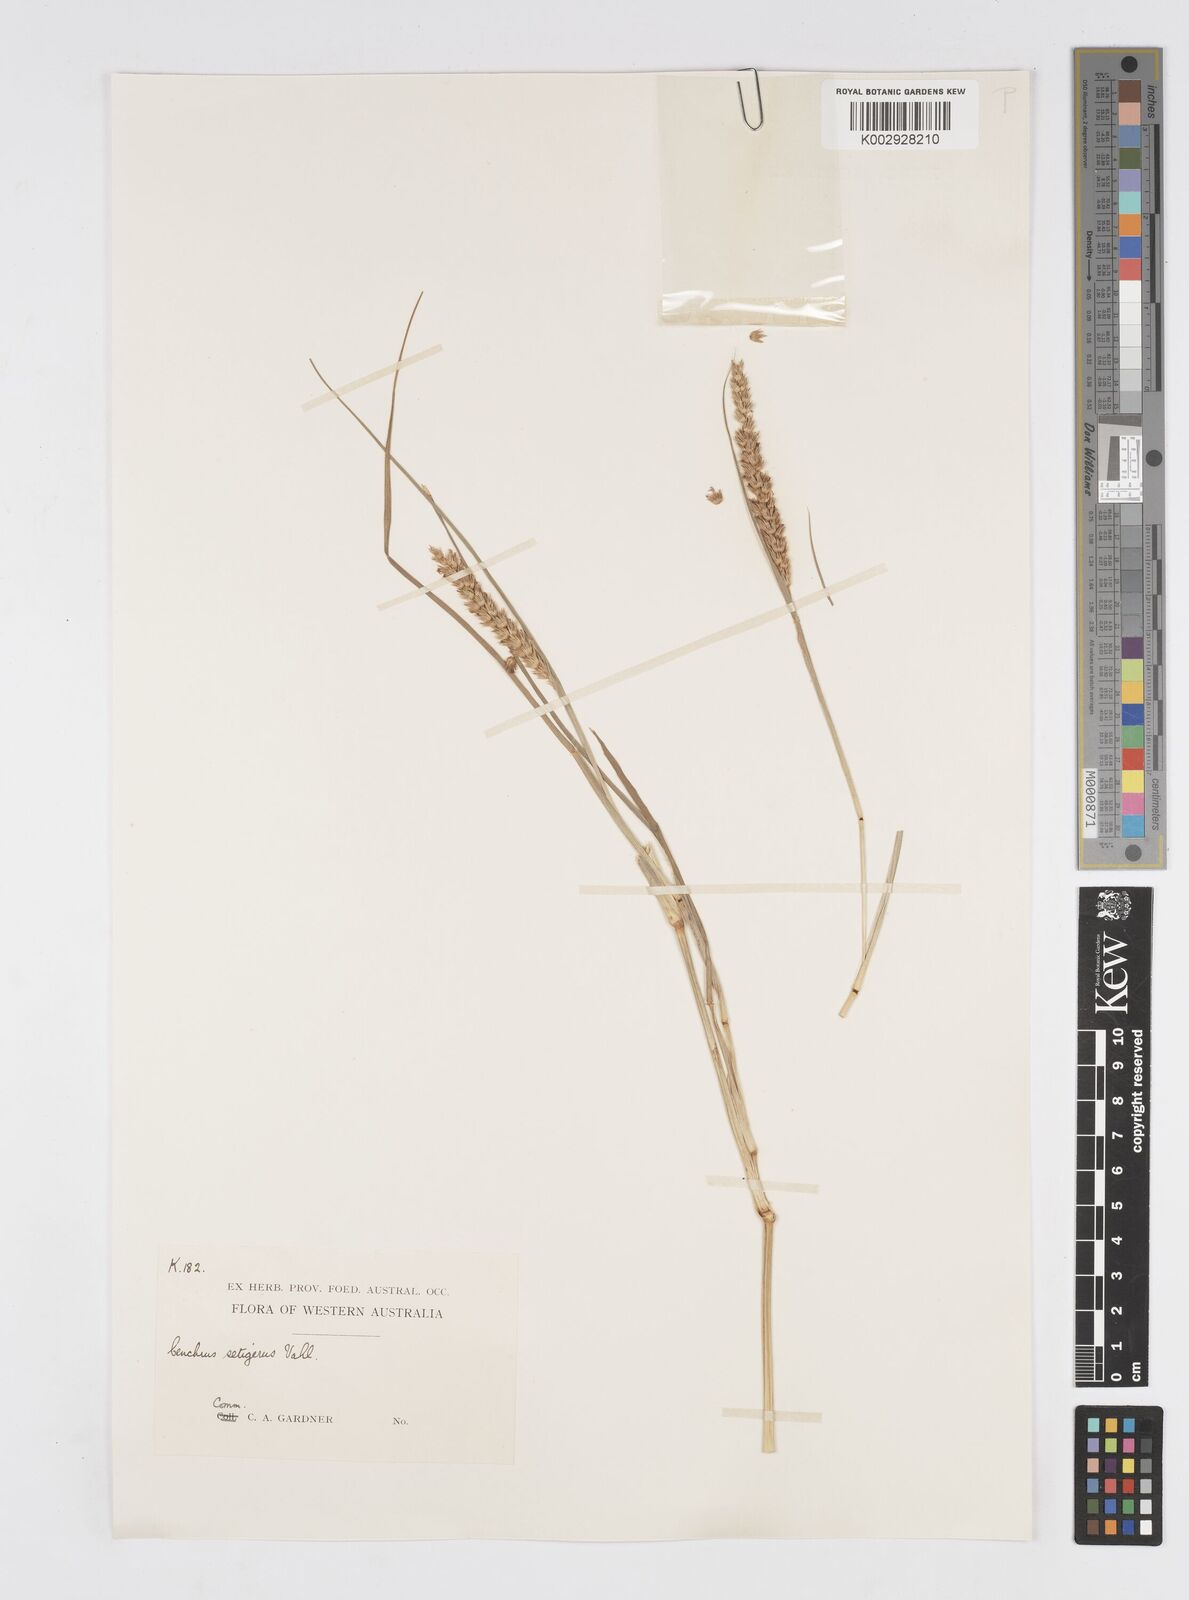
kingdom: Plantae
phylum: Tracheophyta
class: Liliopsida
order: Poales
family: Poaceae
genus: Cenchrus
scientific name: Cenchrus setigerus
